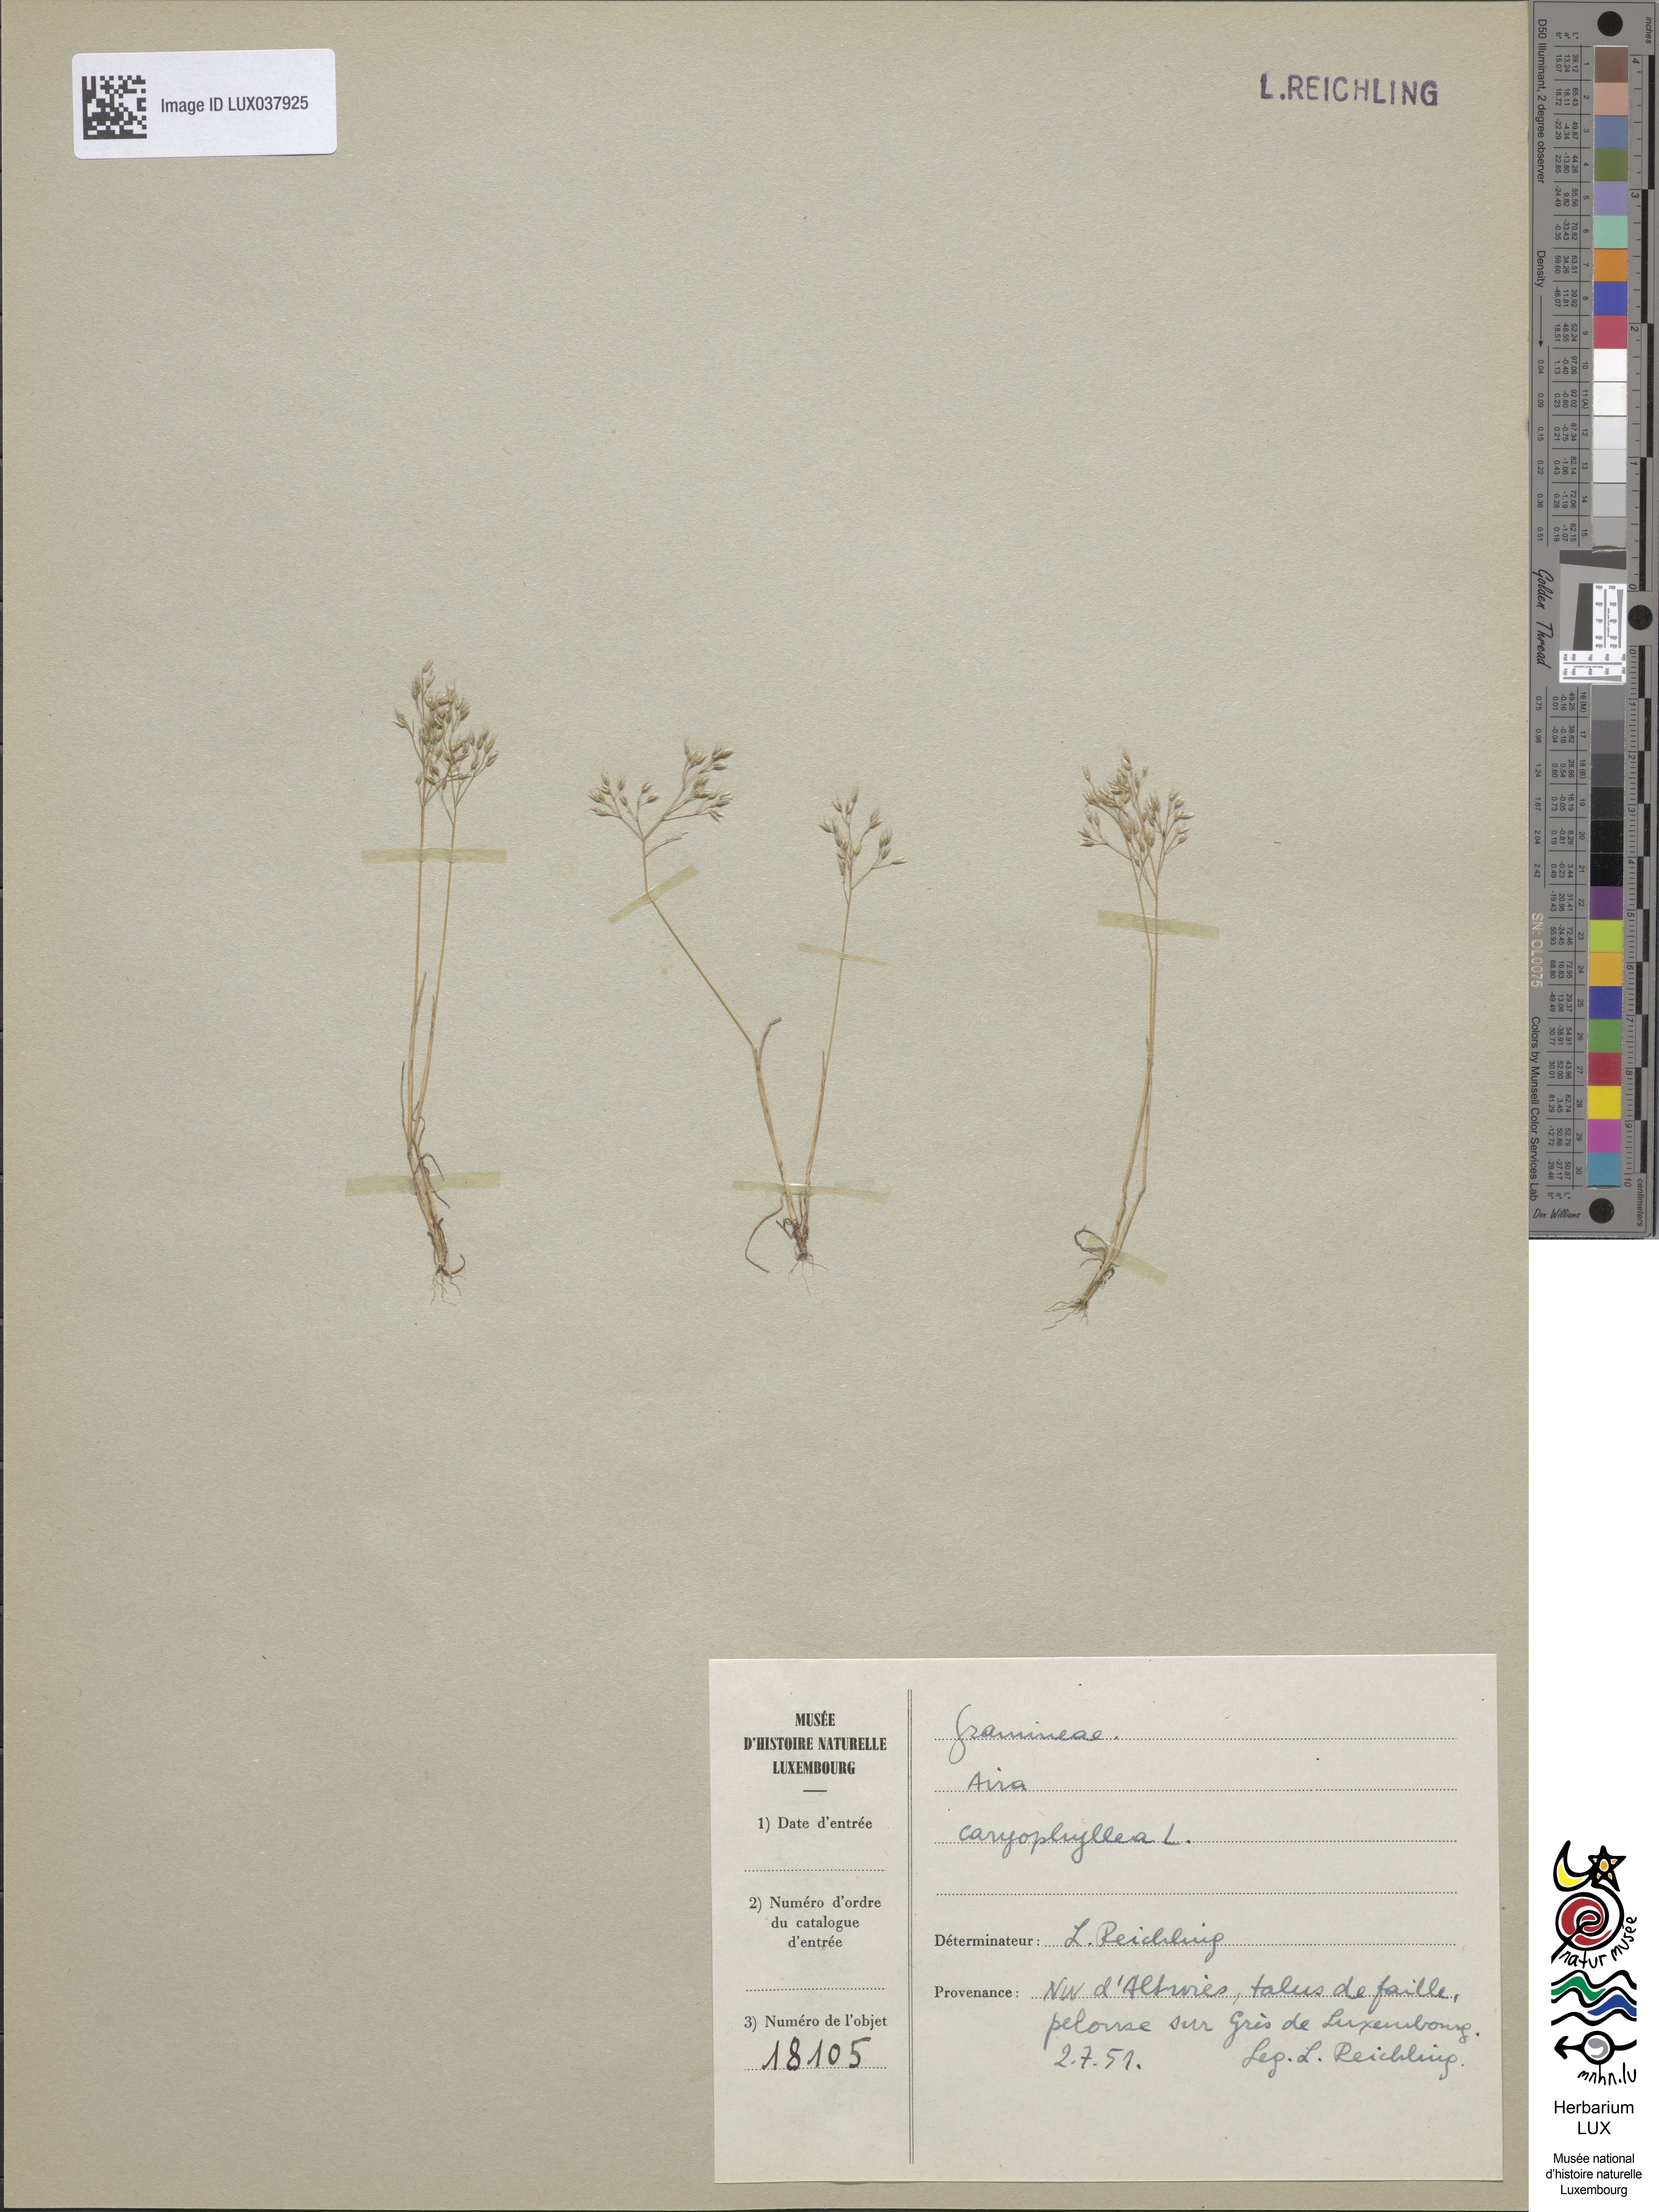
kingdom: Plantae
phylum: Tracheophyta
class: Liliopsida
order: Poales
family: Poaceae
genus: Aira
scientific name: Aira caryophyllea
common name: Silver hairgrass
